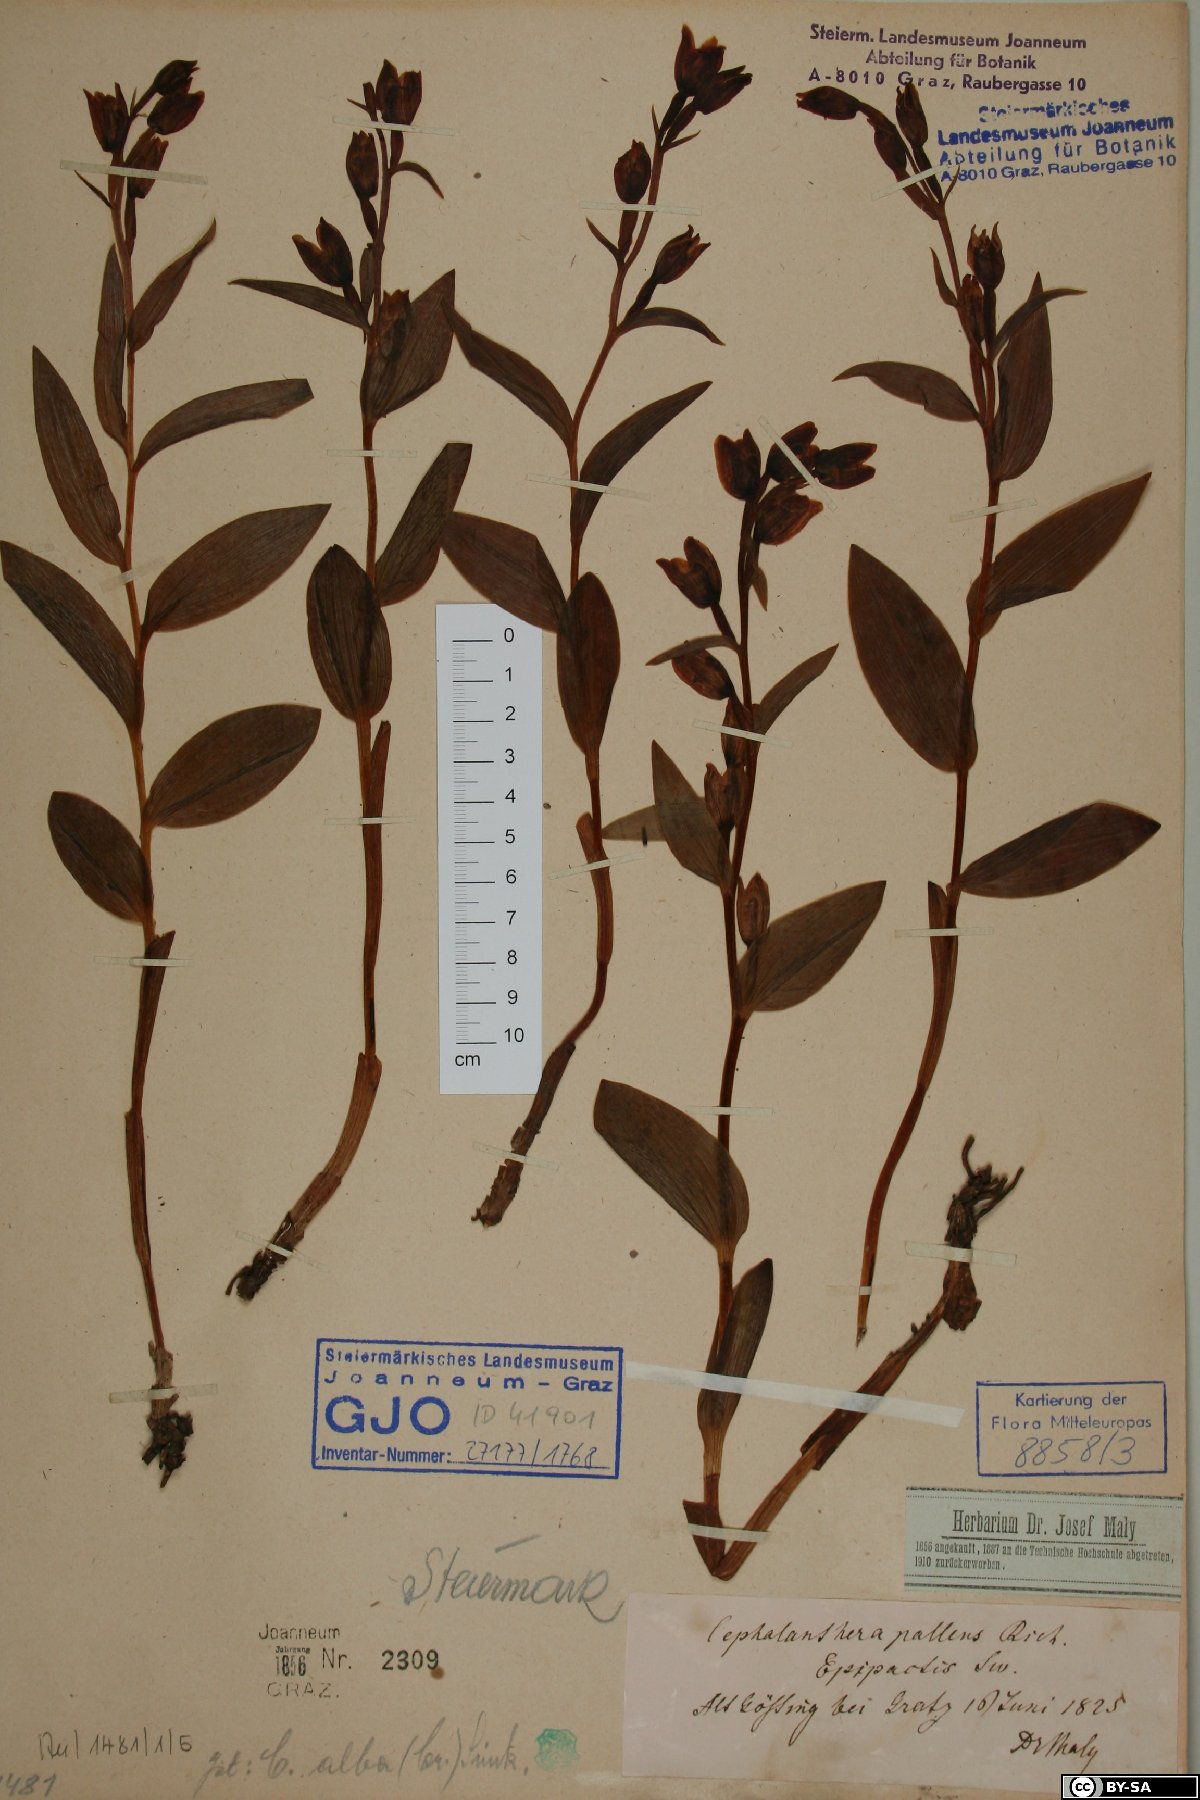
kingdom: Plantae
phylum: Tracheophyta
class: Liliopsida
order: Asparagales
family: Orchidaceae
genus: Cephalanthera
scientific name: Cephalanthera longifolia
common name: Narrow-leaved helleborine
